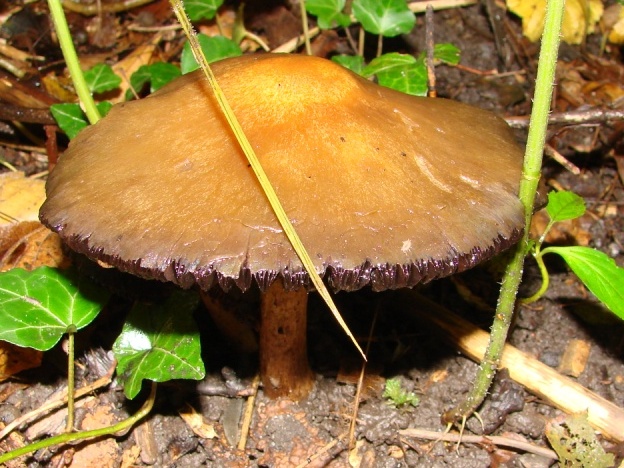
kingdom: Fungi
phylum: Basidiomycota
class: Agaricomycetes
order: Agaricales
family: Psathyrellaceae
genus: Lacrymaria
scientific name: Lacrymaria lacrymabunda
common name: grædende mørkhat
